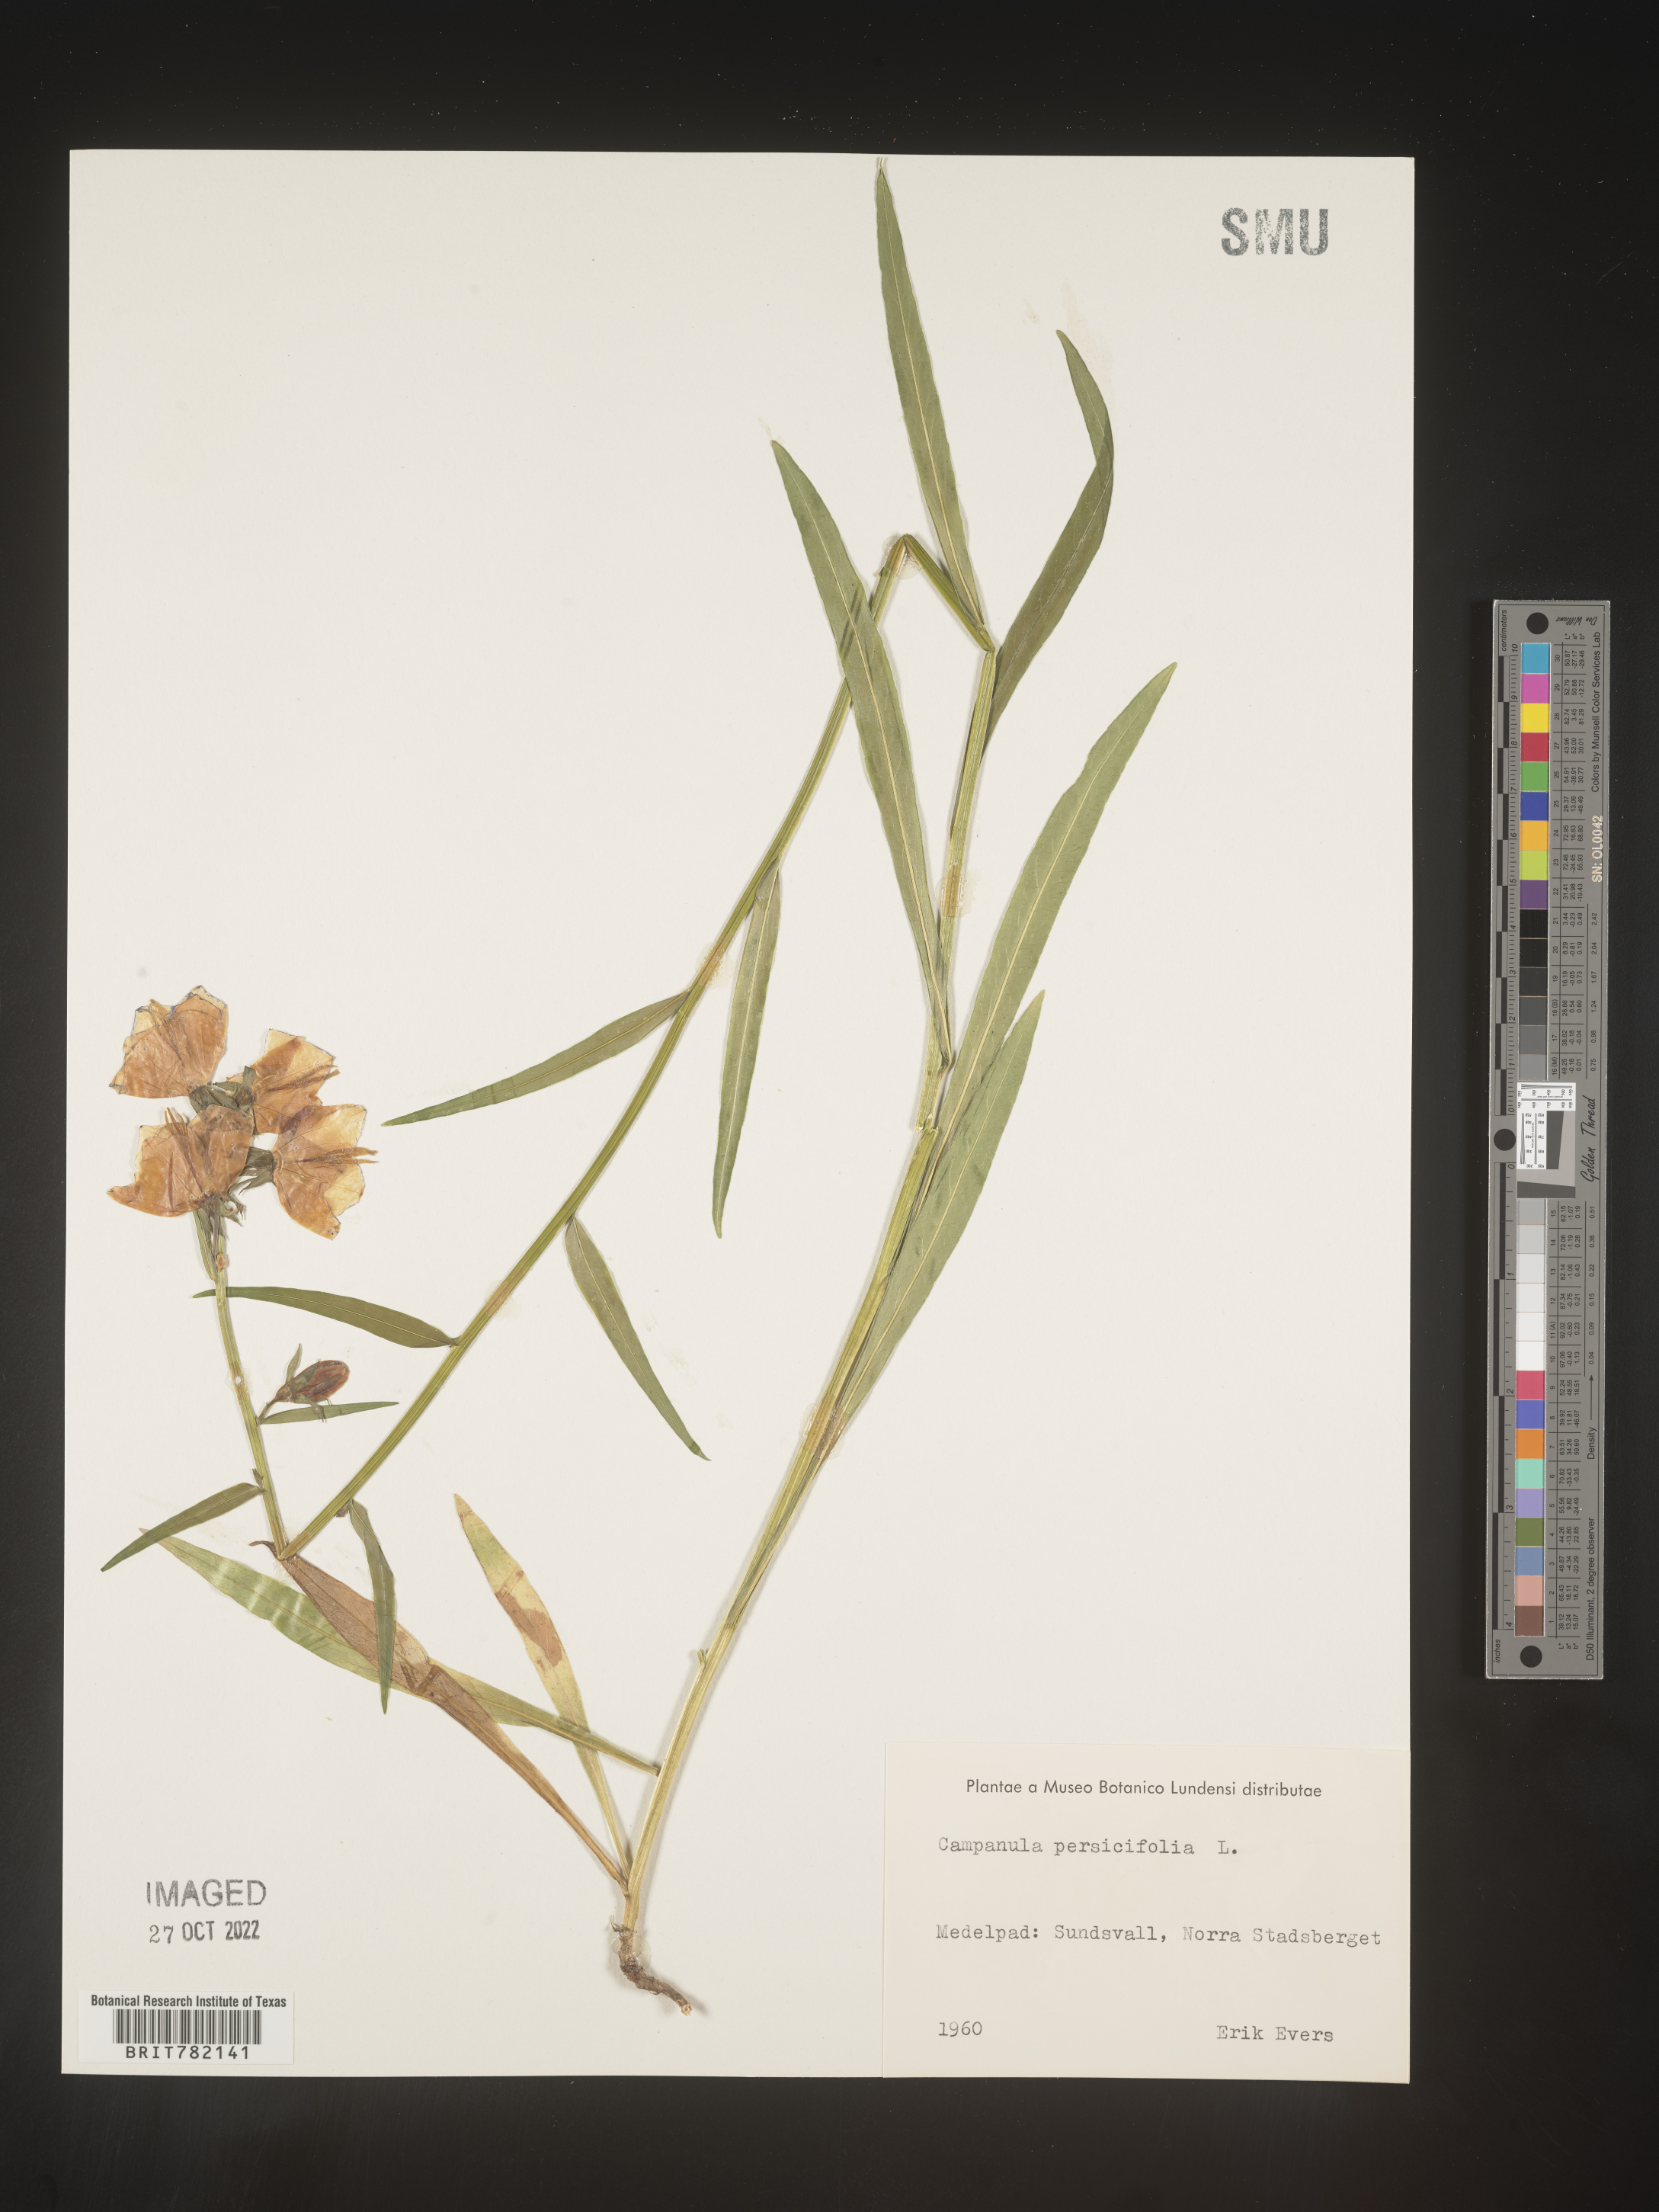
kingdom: Plantae
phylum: Tracheophyta
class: Magnoliopsida
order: Asterales
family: Campanulaceae
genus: Campanula
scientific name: Campanula
